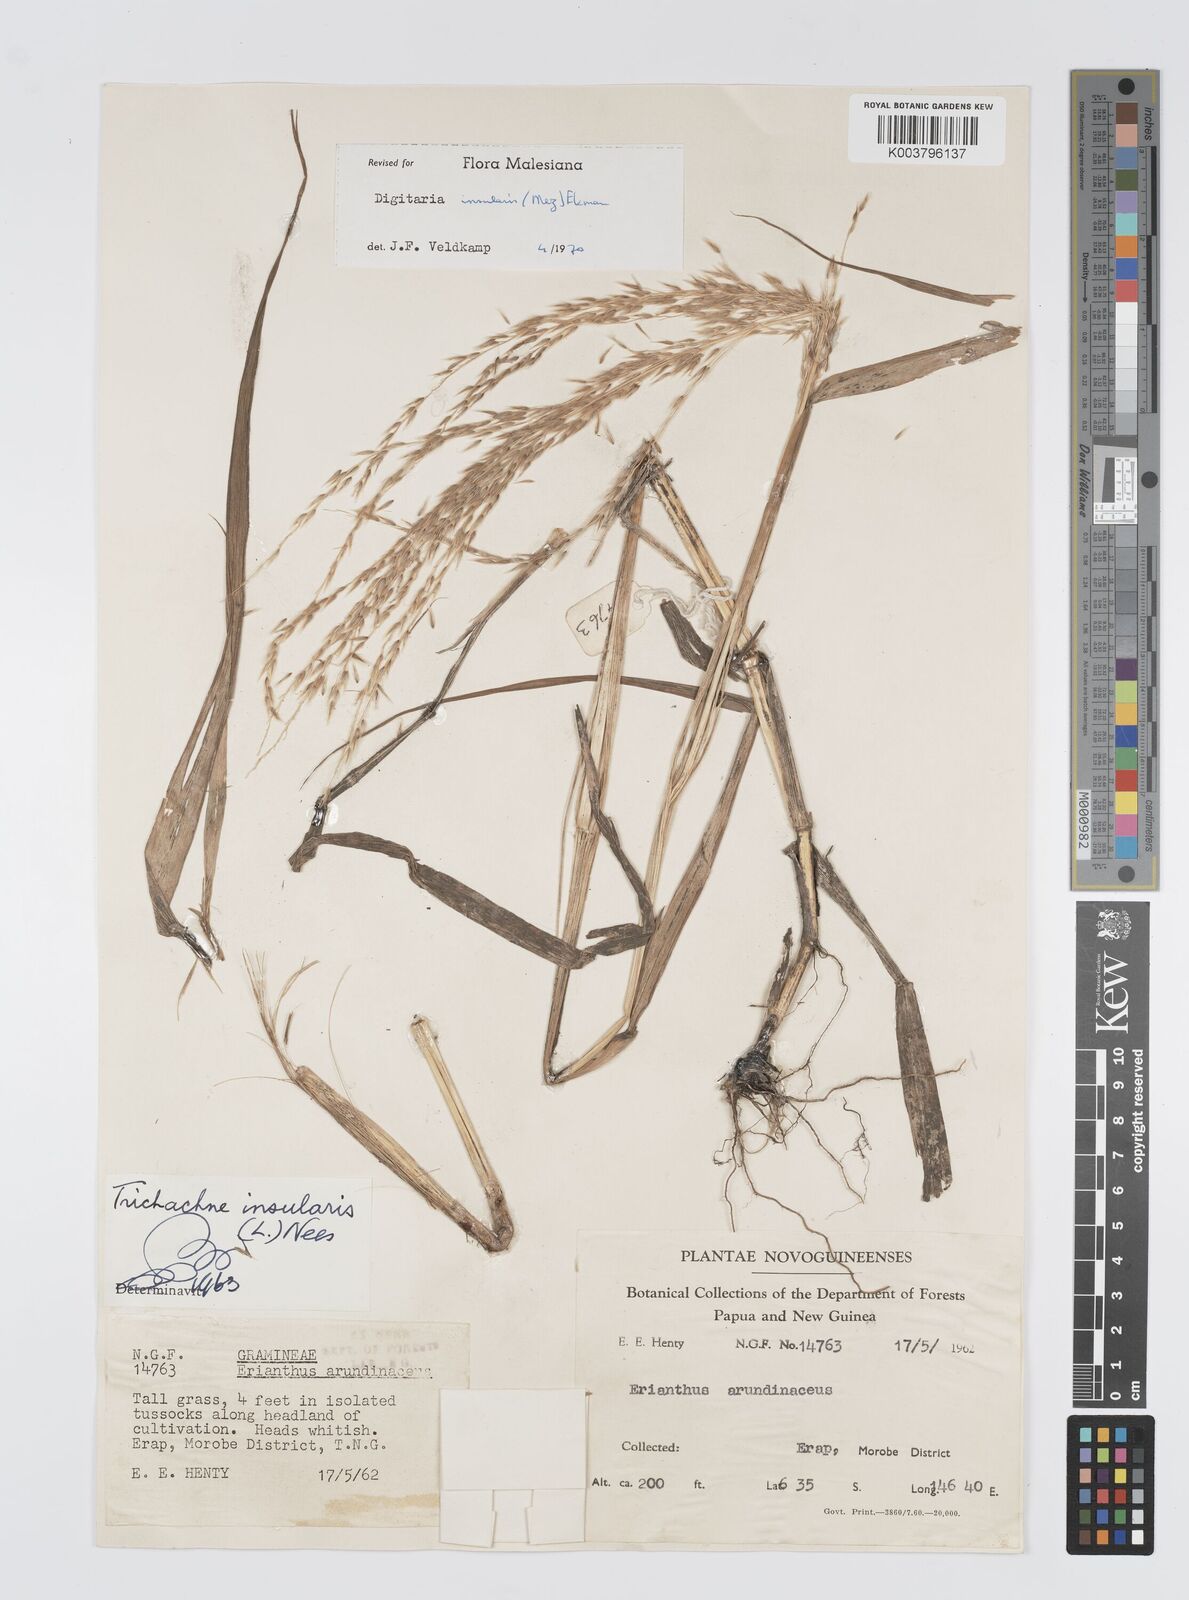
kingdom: Plantae
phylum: Tracheophyta
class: Liliopsida
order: Poales
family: Poaceae
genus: Digitaria
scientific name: Digitaria insularis
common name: Sourgrass
